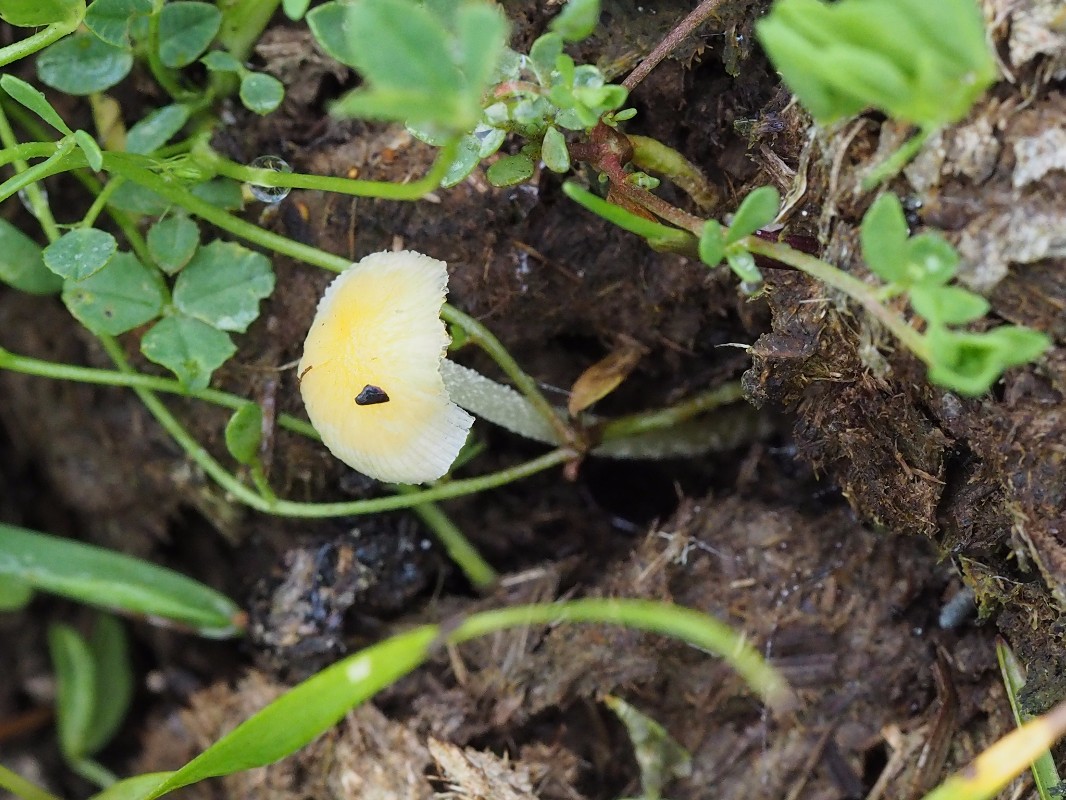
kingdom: Fungi
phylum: Basidiomycota
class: Agaricomycetes
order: Agaricales
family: Bolbitiaceae
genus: Bolbitius
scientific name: Bolbitius titubans
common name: almindelig gulhat
